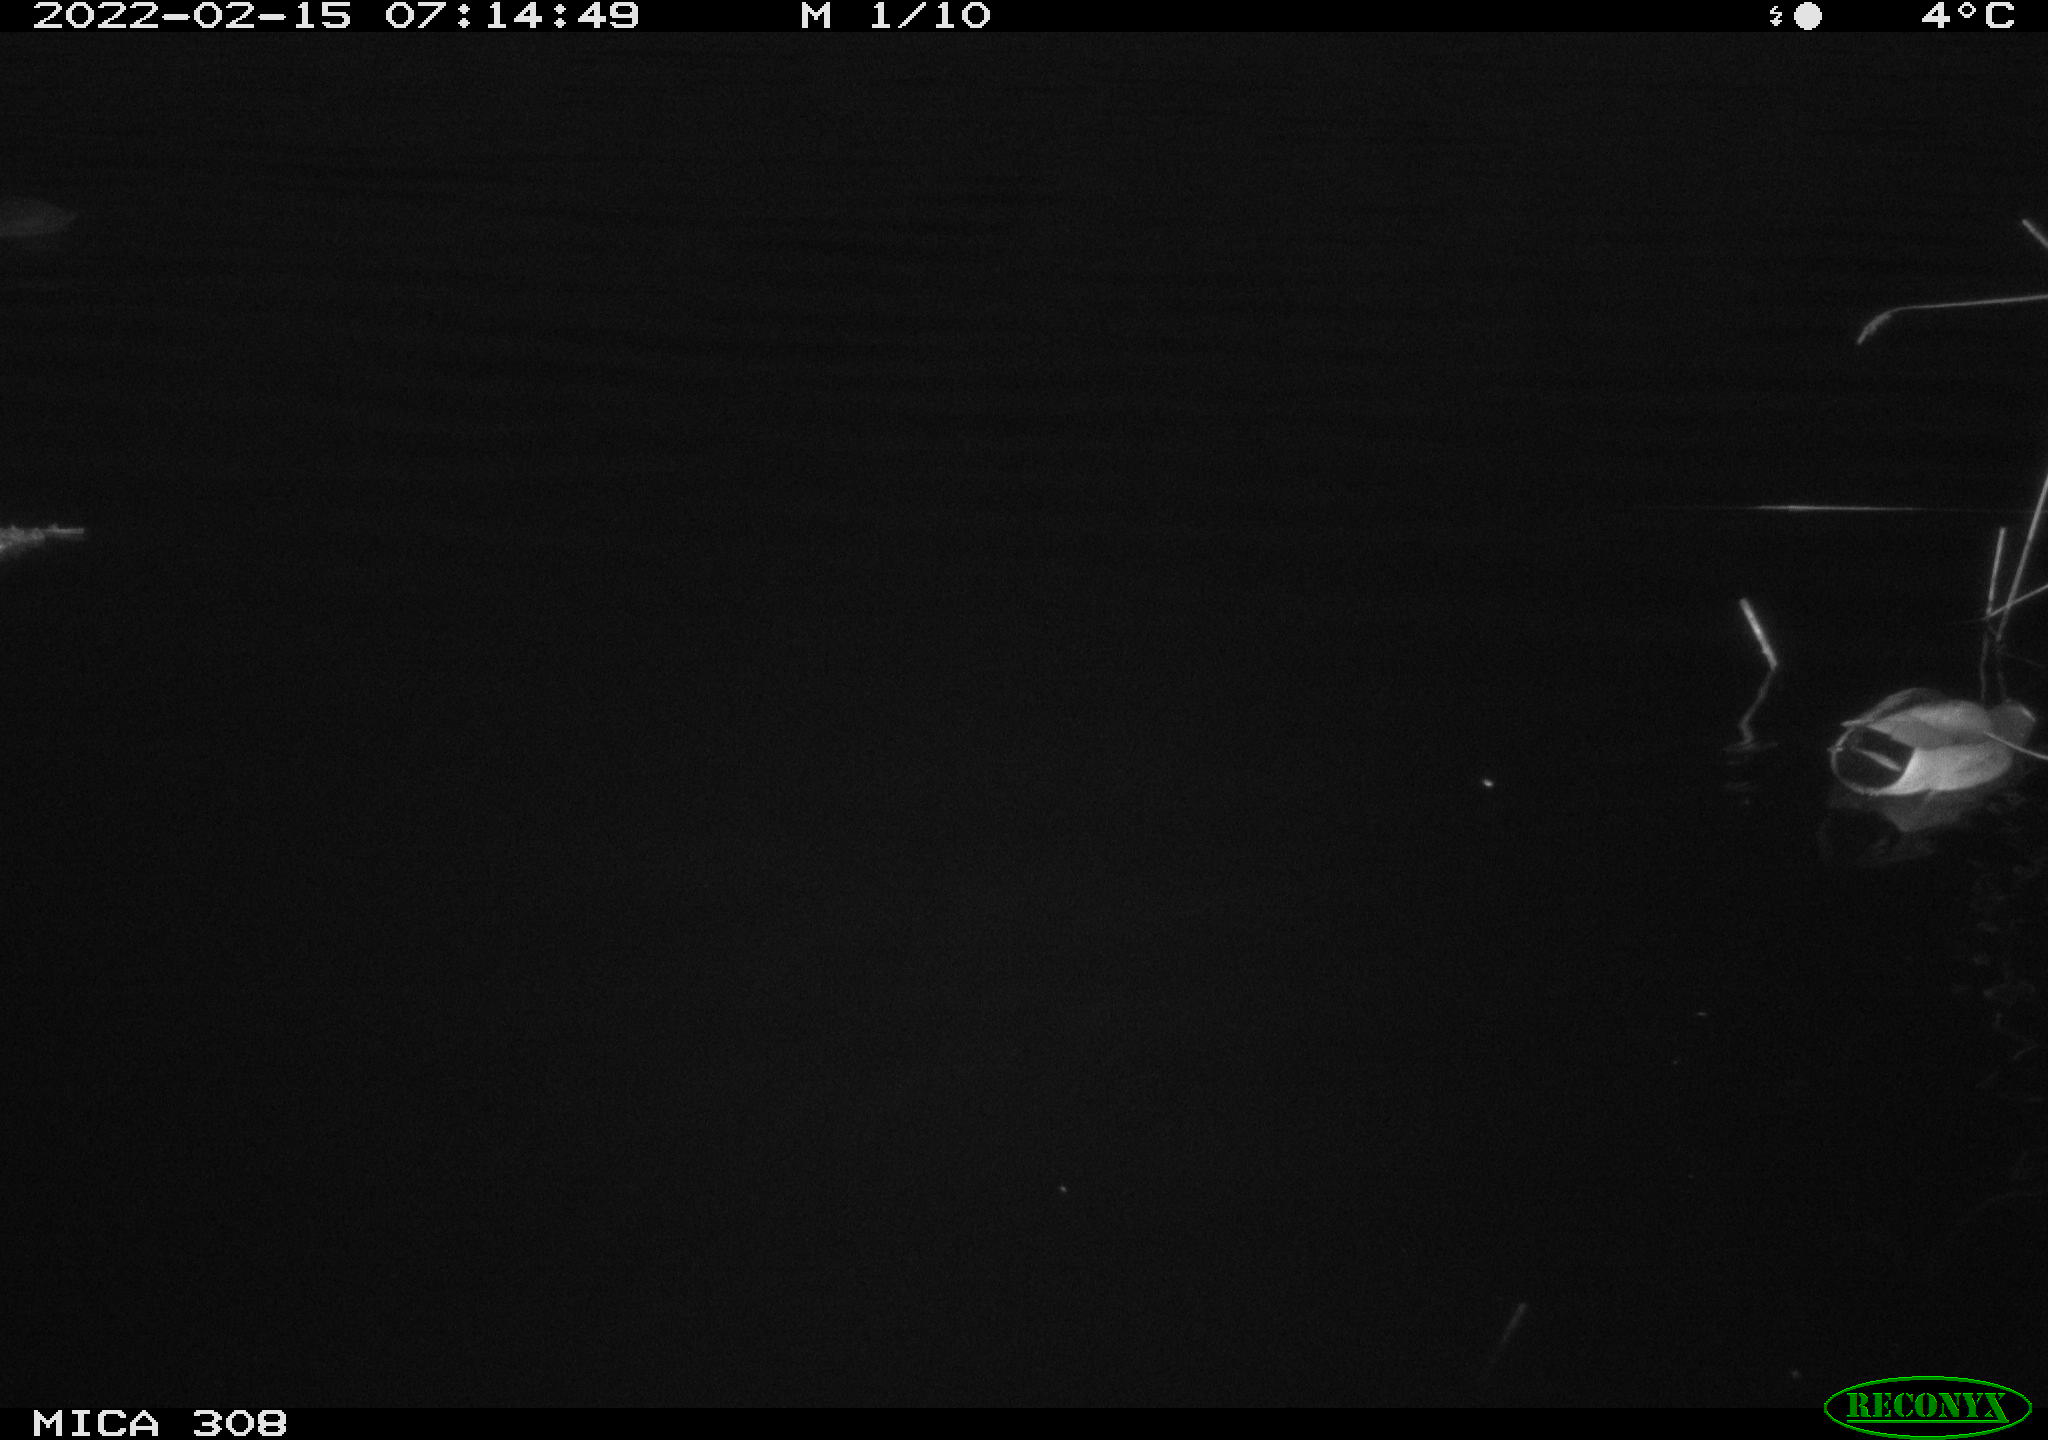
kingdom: Animalia
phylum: Chordata
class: Aves
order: Anseriformes
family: Anatidae
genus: Anas
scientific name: Anas platyrhynchos
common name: Mallard
